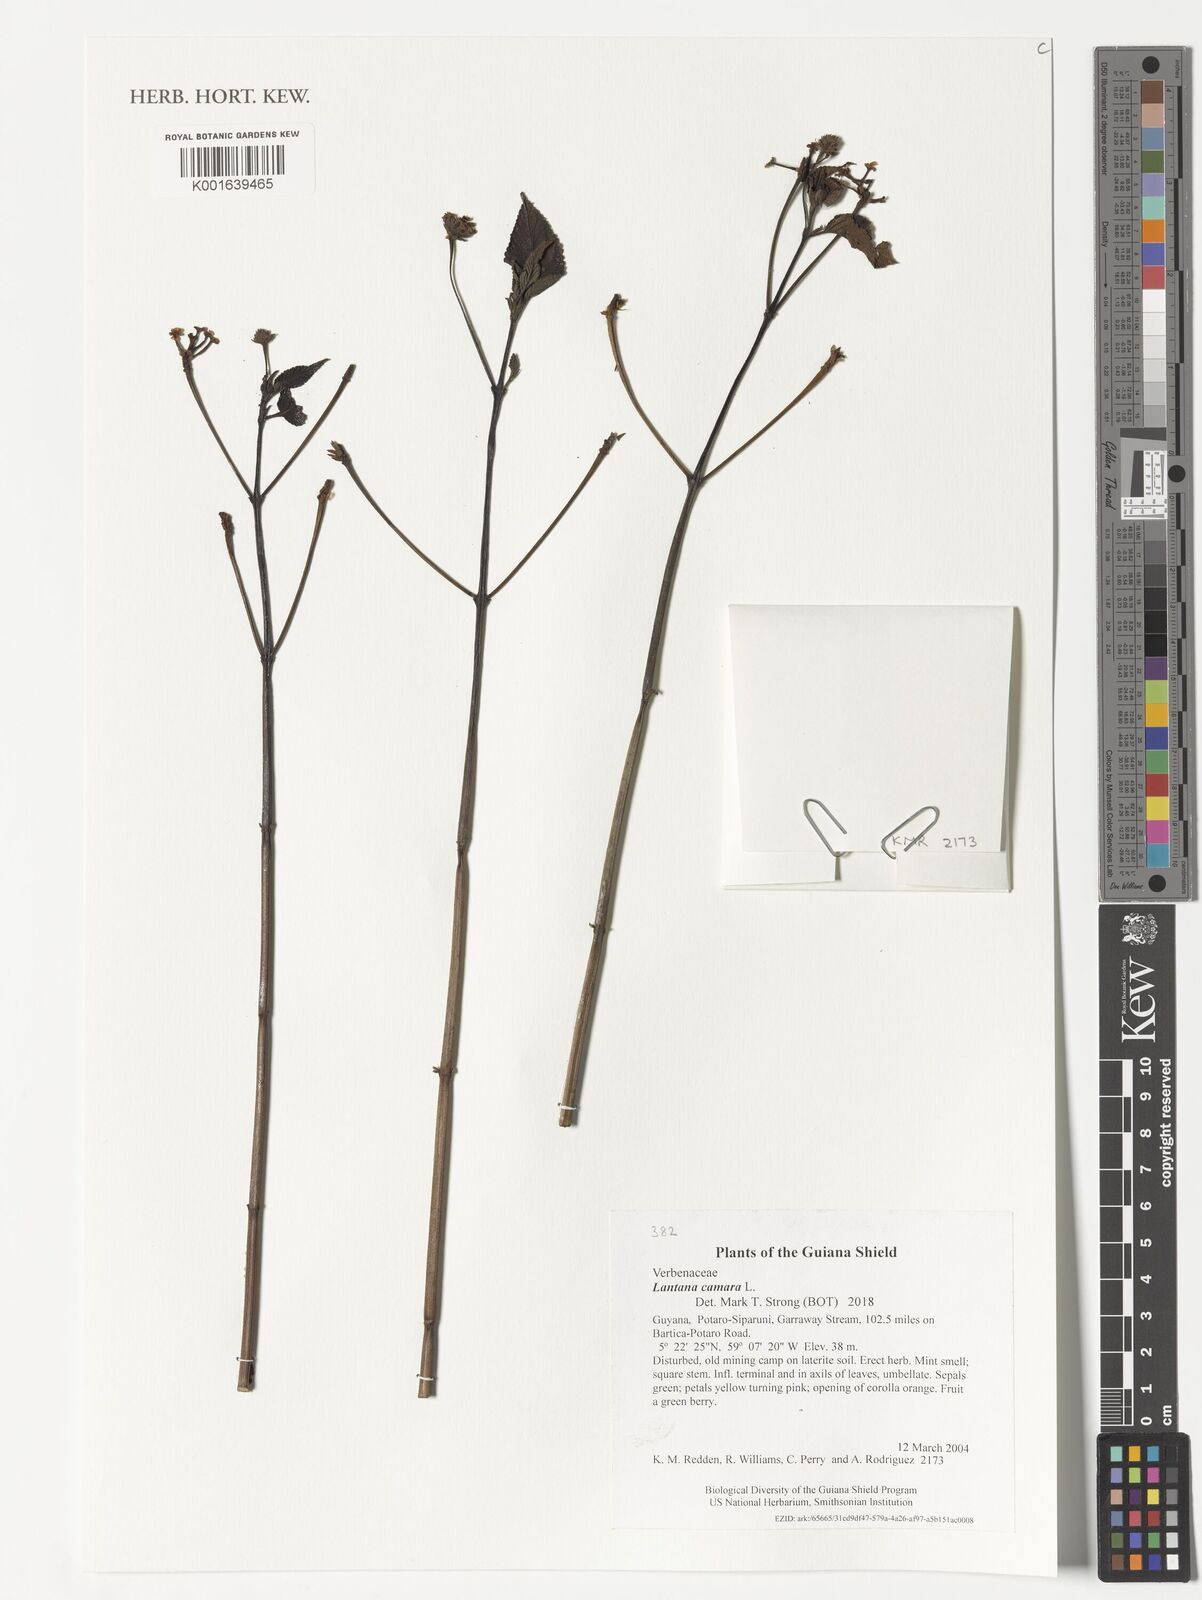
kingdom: Plantae
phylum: Tracheophyta
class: Magnoliopsida
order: Lamiales
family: Verbenaceae
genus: Lantana
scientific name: Lantana camara
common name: Lantana
